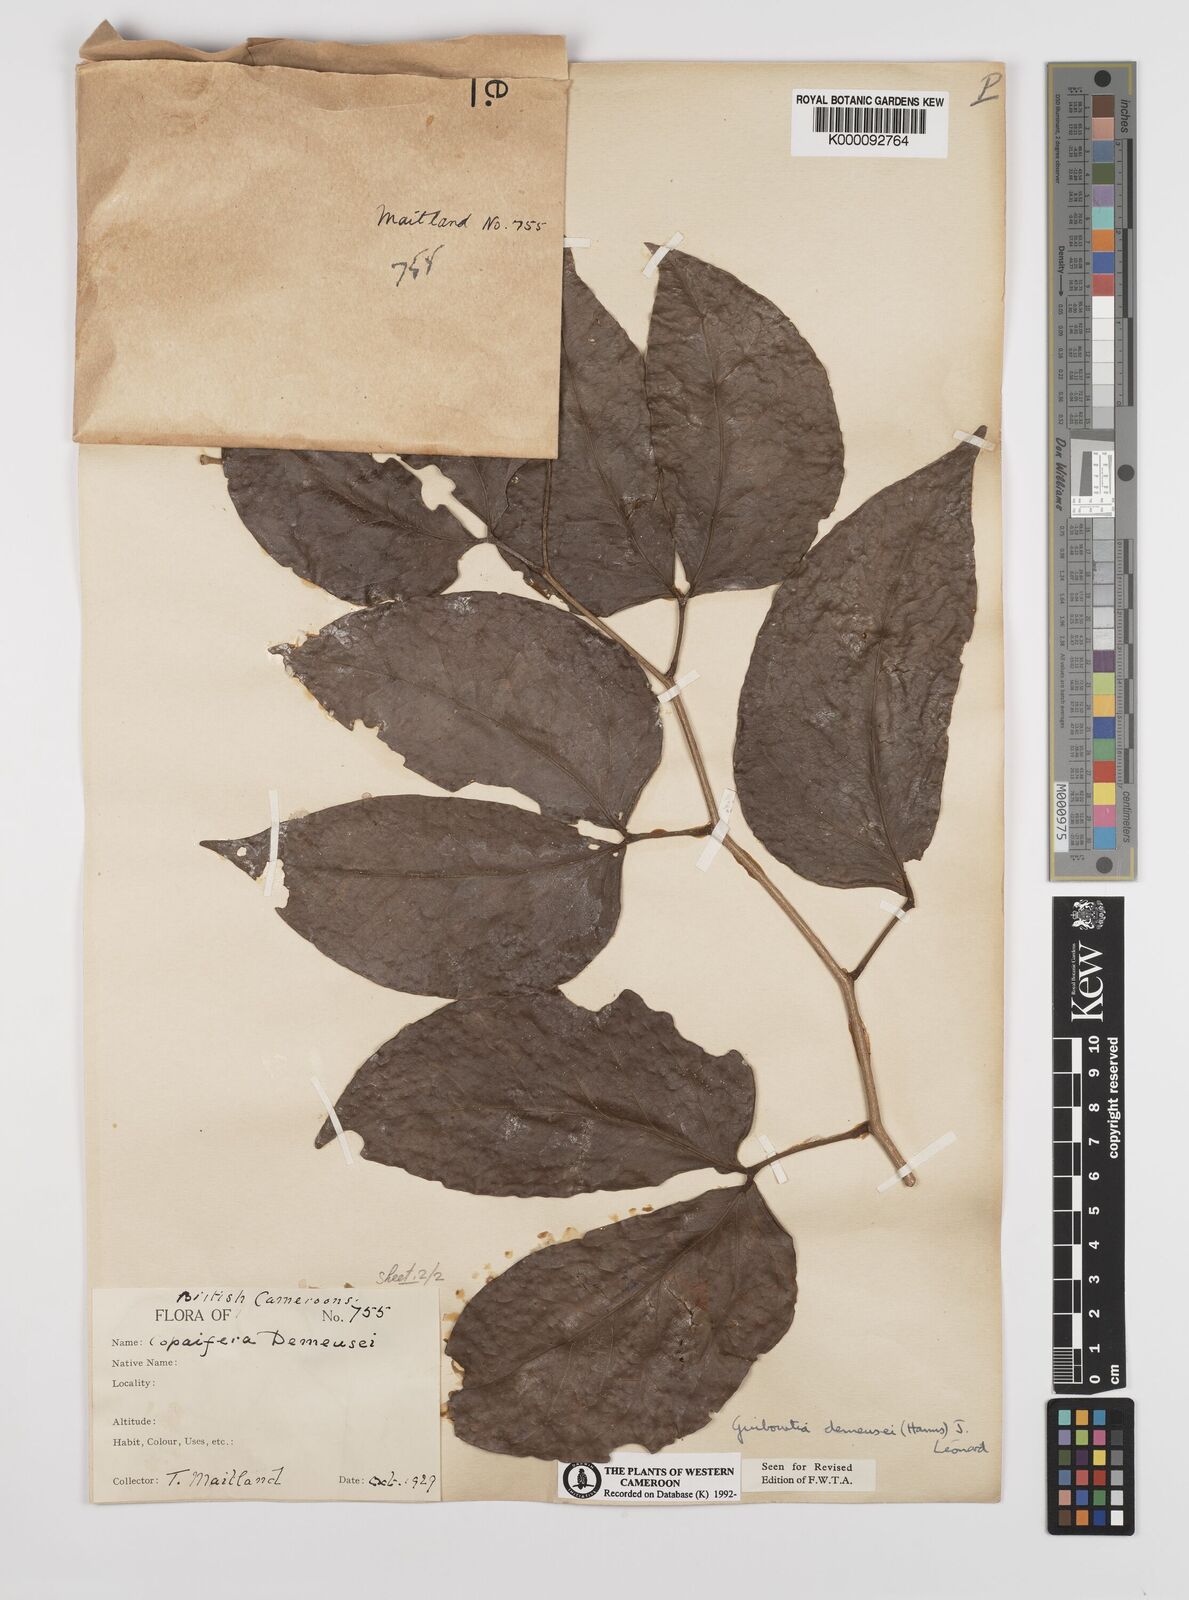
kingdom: Plantae
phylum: Tracheophyta
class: Magnoliopsida
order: Fabales
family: Fabaceae
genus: Guibourtia
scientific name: Guibourtia
